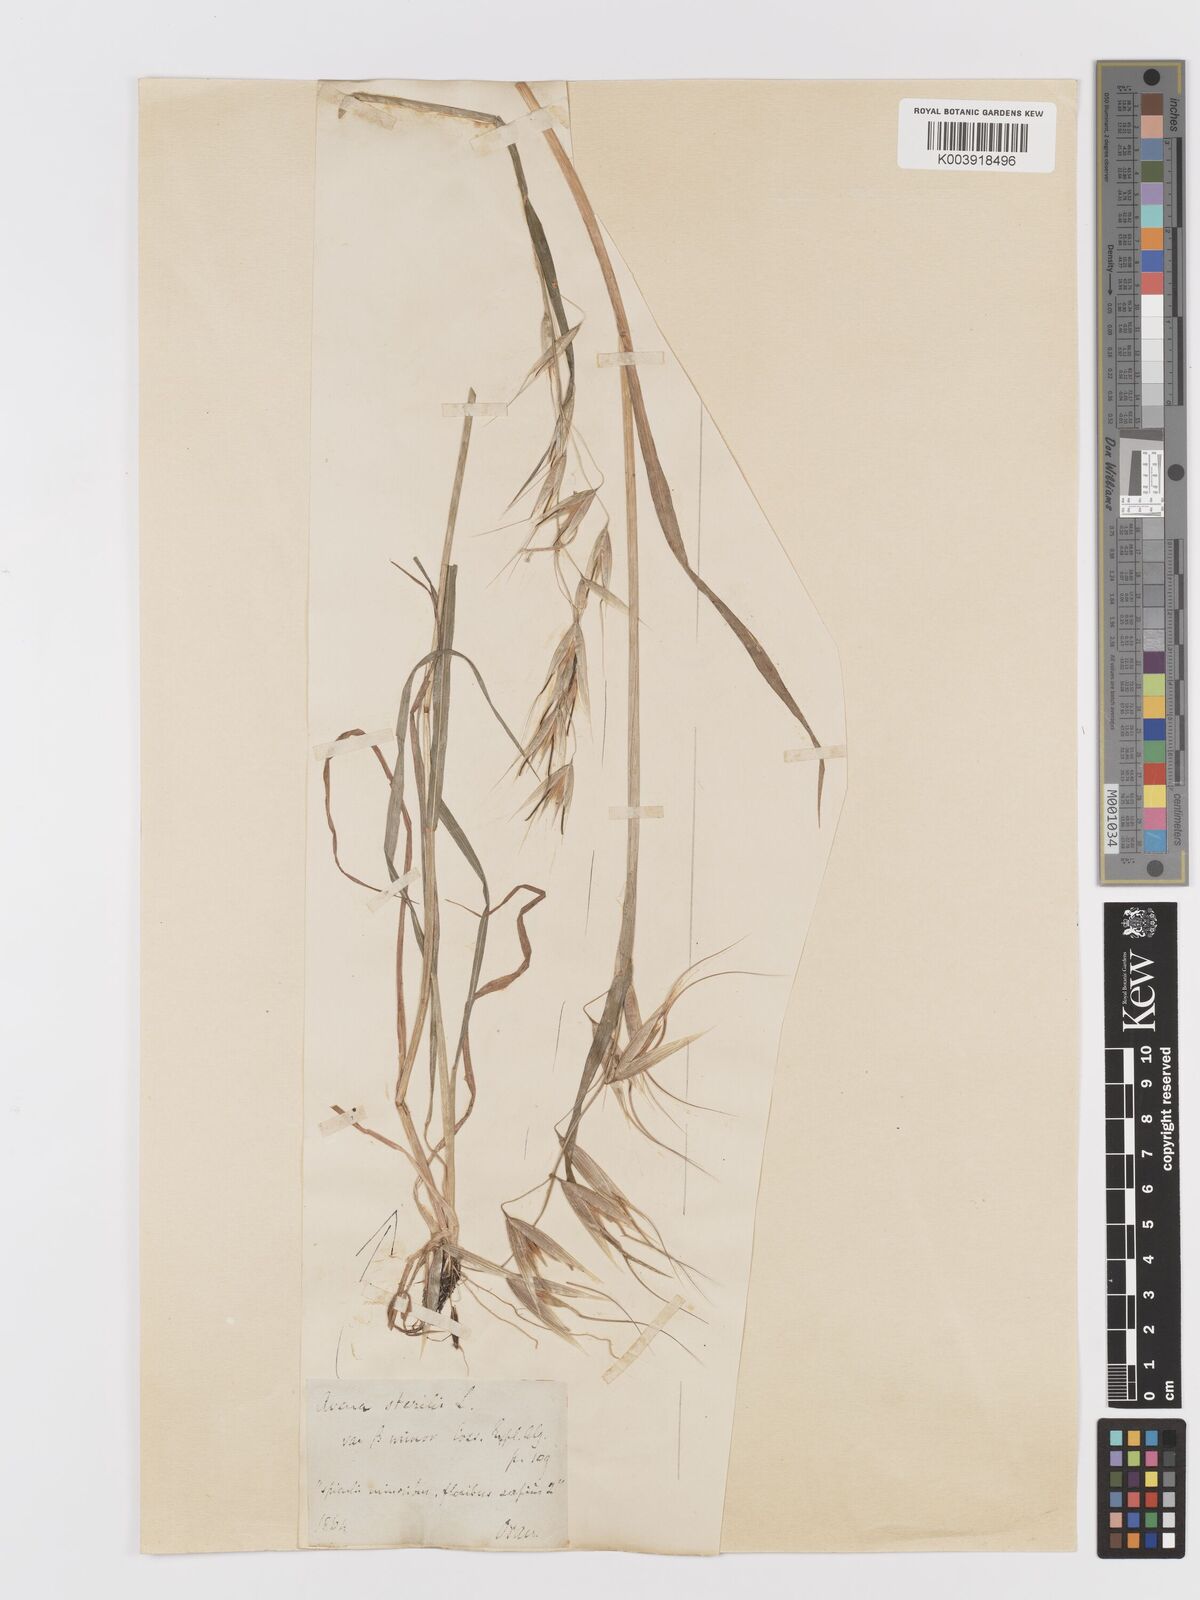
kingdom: Plantae
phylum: Tracheophyta
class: Liliopsida
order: Poales
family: Poaceae
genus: Avena
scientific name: Avena sterilis
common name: Animated oat
